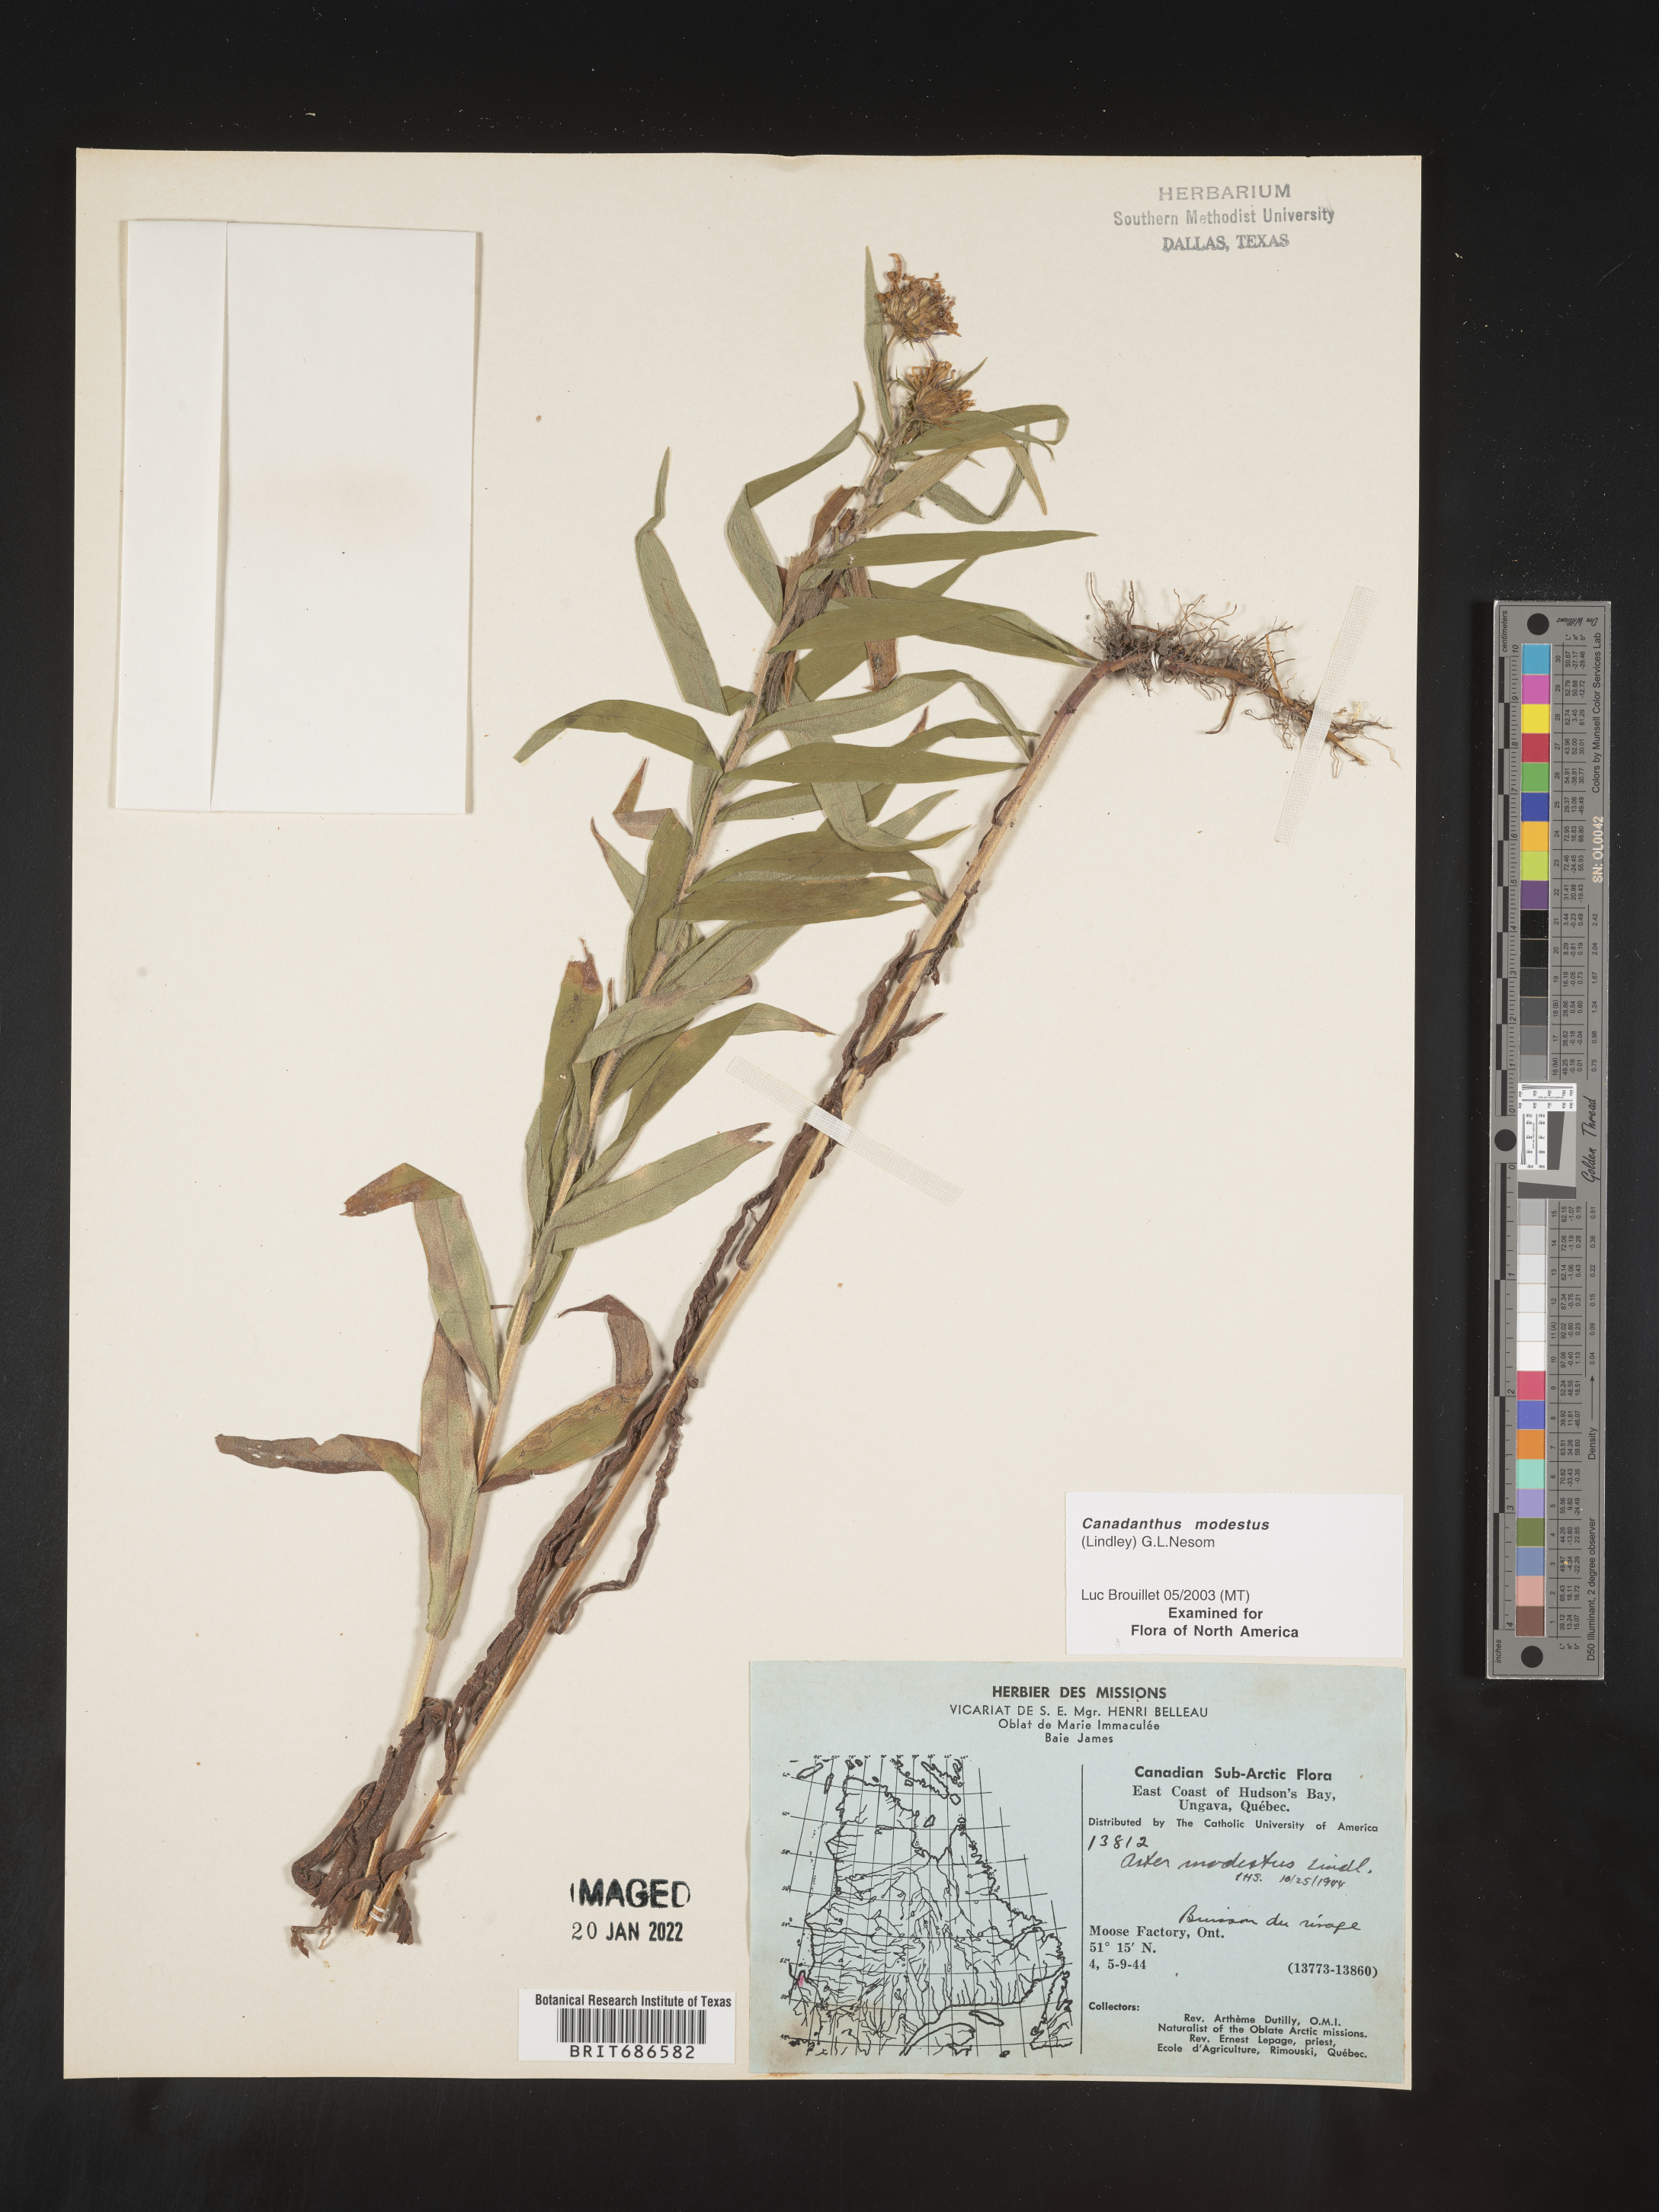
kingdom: Plantae
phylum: Tracheophyta
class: Magnoliopsida
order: Asterales
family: Asteraceae
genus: Canadanthus
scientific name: Canadanthus modestus
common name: Great northern aster
